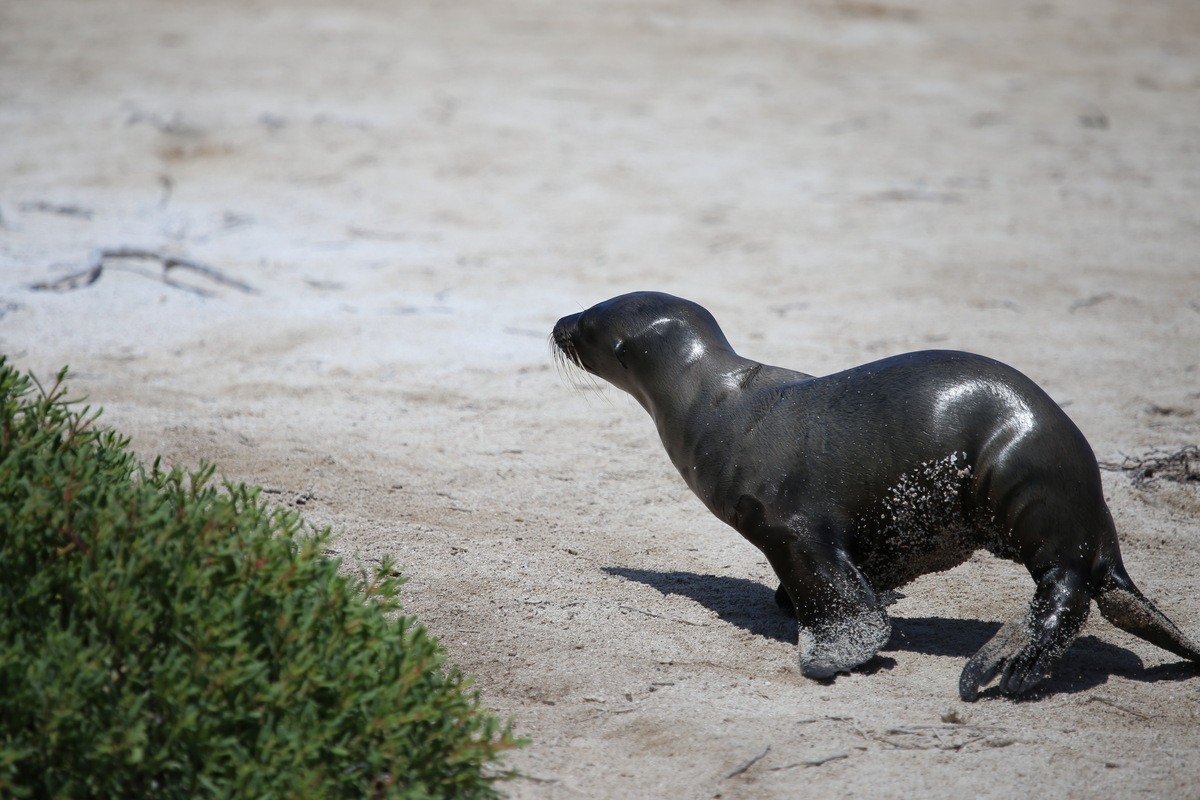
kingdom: Animalia
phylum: Chordata
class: Mammalia
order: Carnivora
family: Otariidae
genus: Zalophus
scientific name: Zalophus wollebaeki
